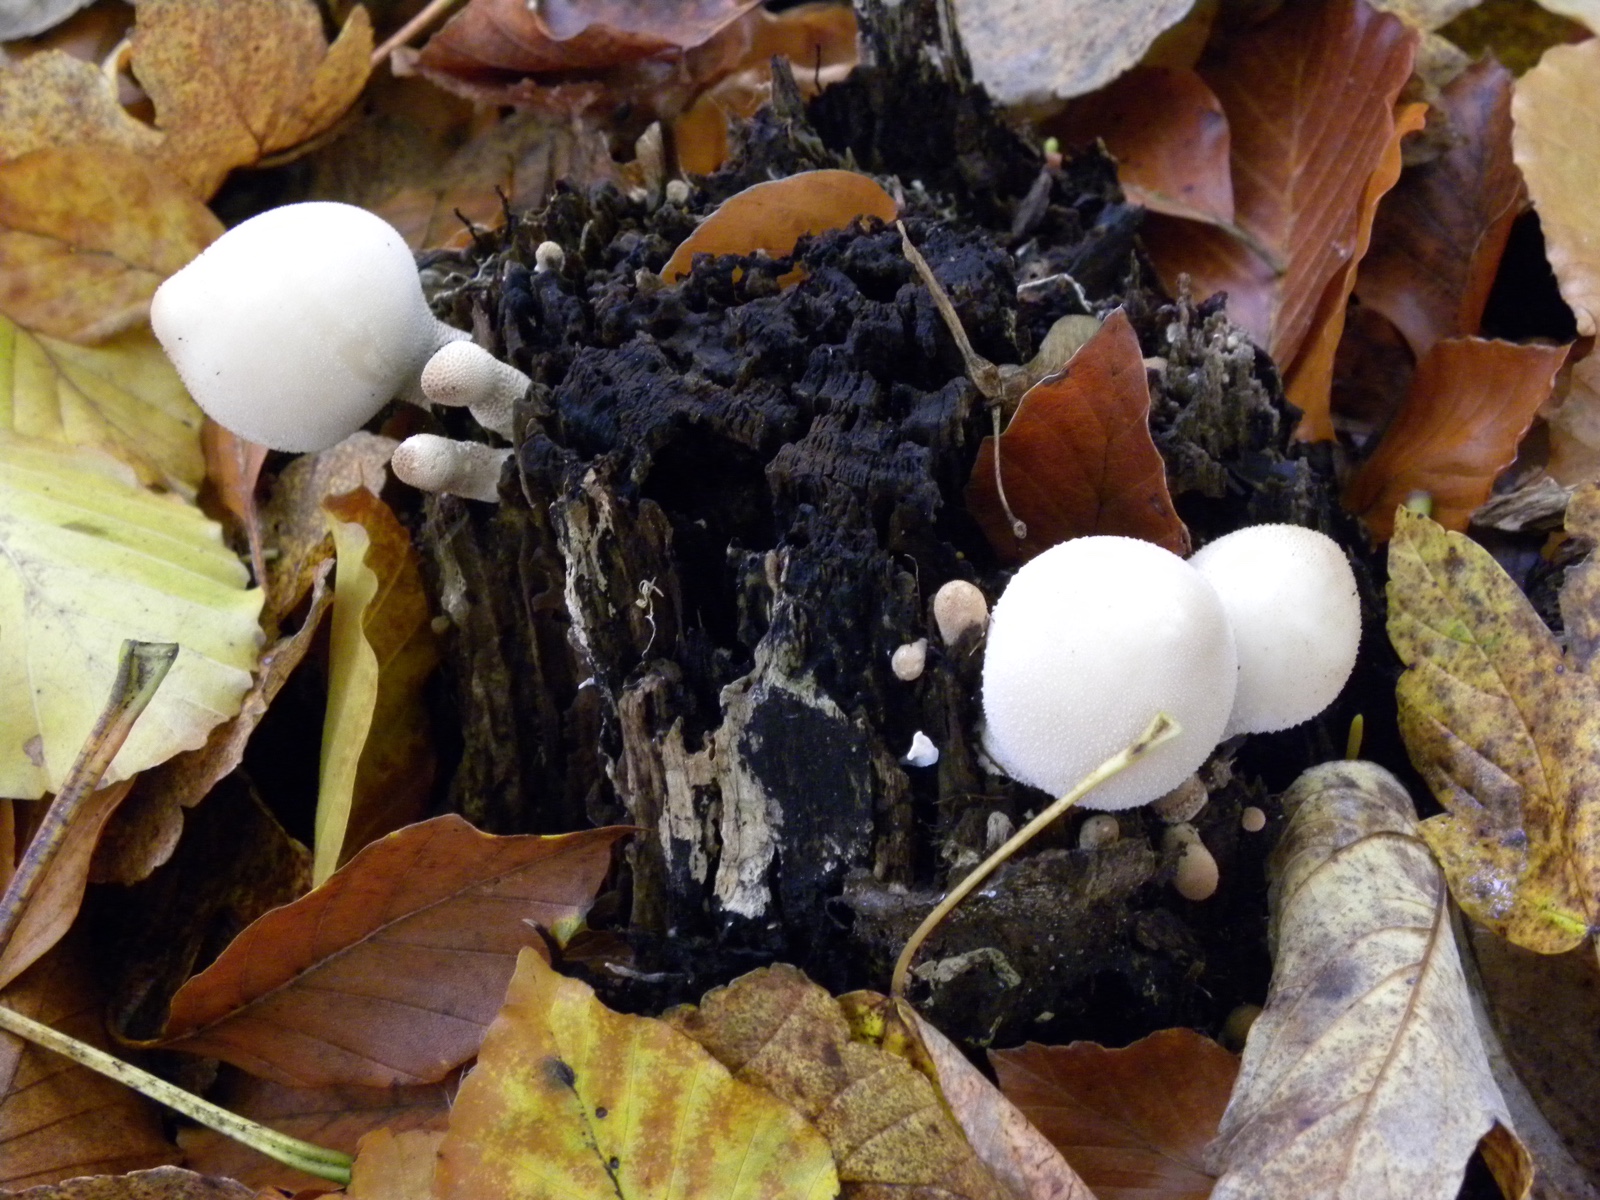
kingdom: Fungi
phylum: Basidiomycota
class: Agaricomycetes
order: Agaricales
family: Lycoperdaceae
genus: Apioperdon
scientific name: Apioperdon pyriforme
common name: pære-støvbold
